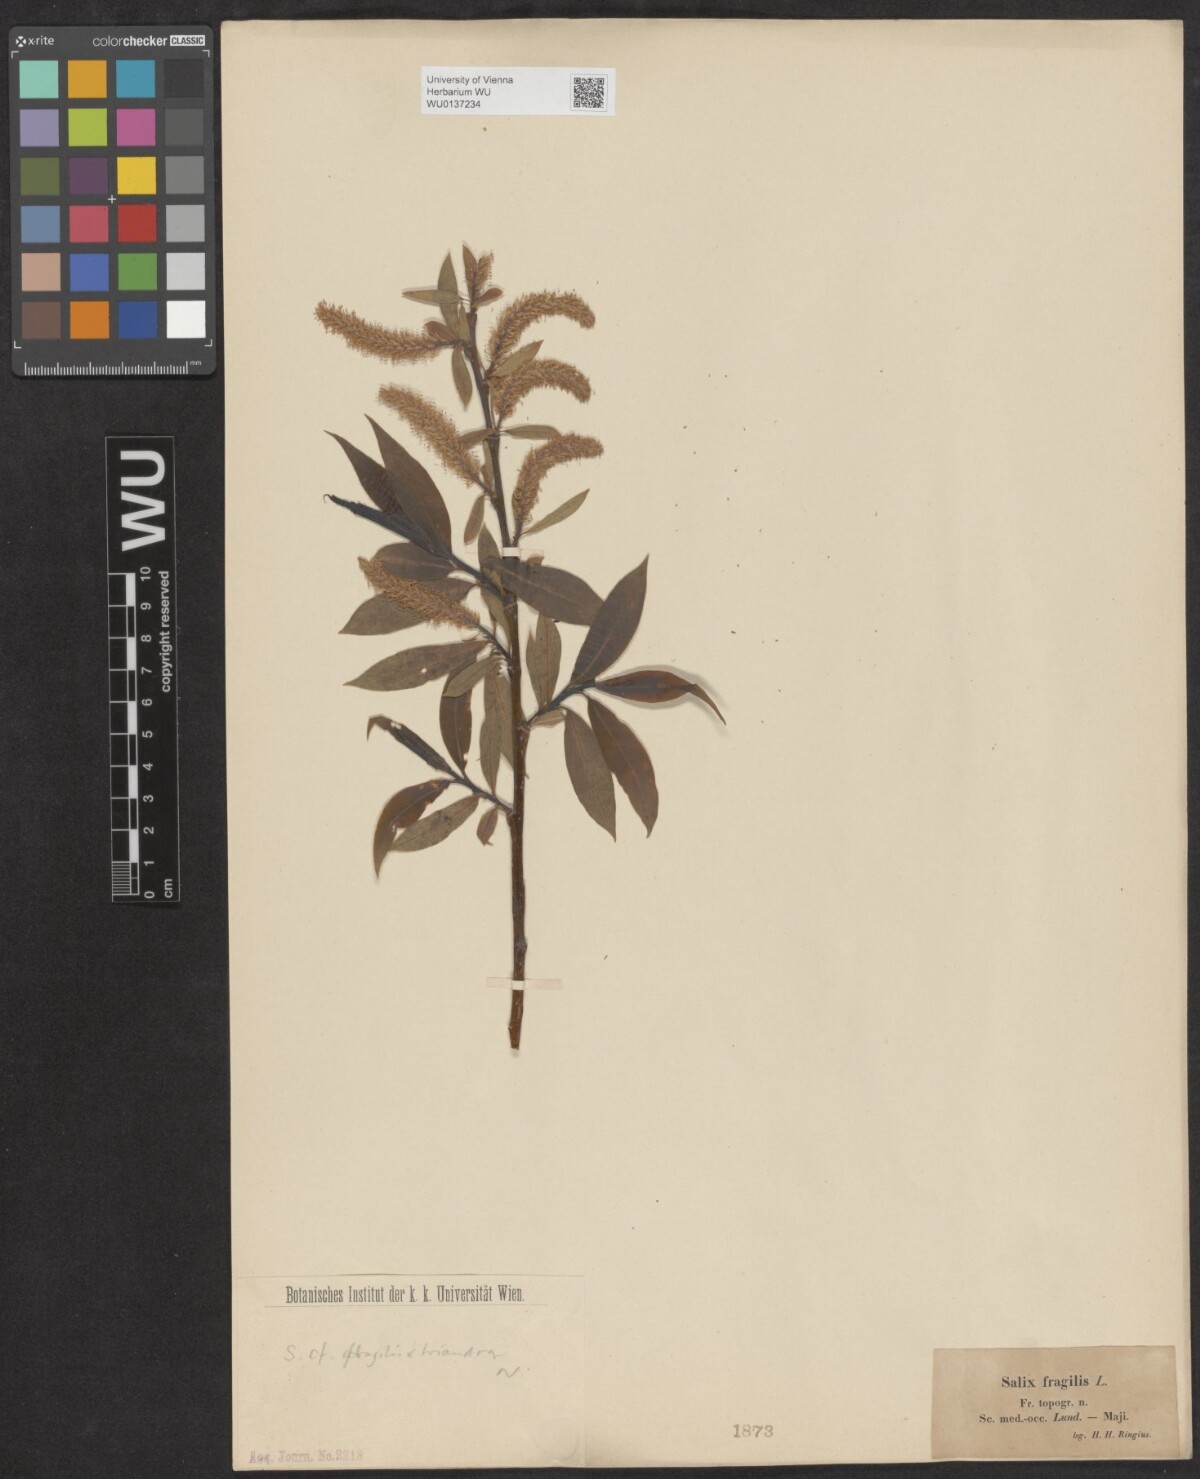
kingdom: Plantae
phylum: Tracheophyta
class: Magnoliopsida
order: Malpighiales
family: Salicaceae
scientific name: Salicaceae
